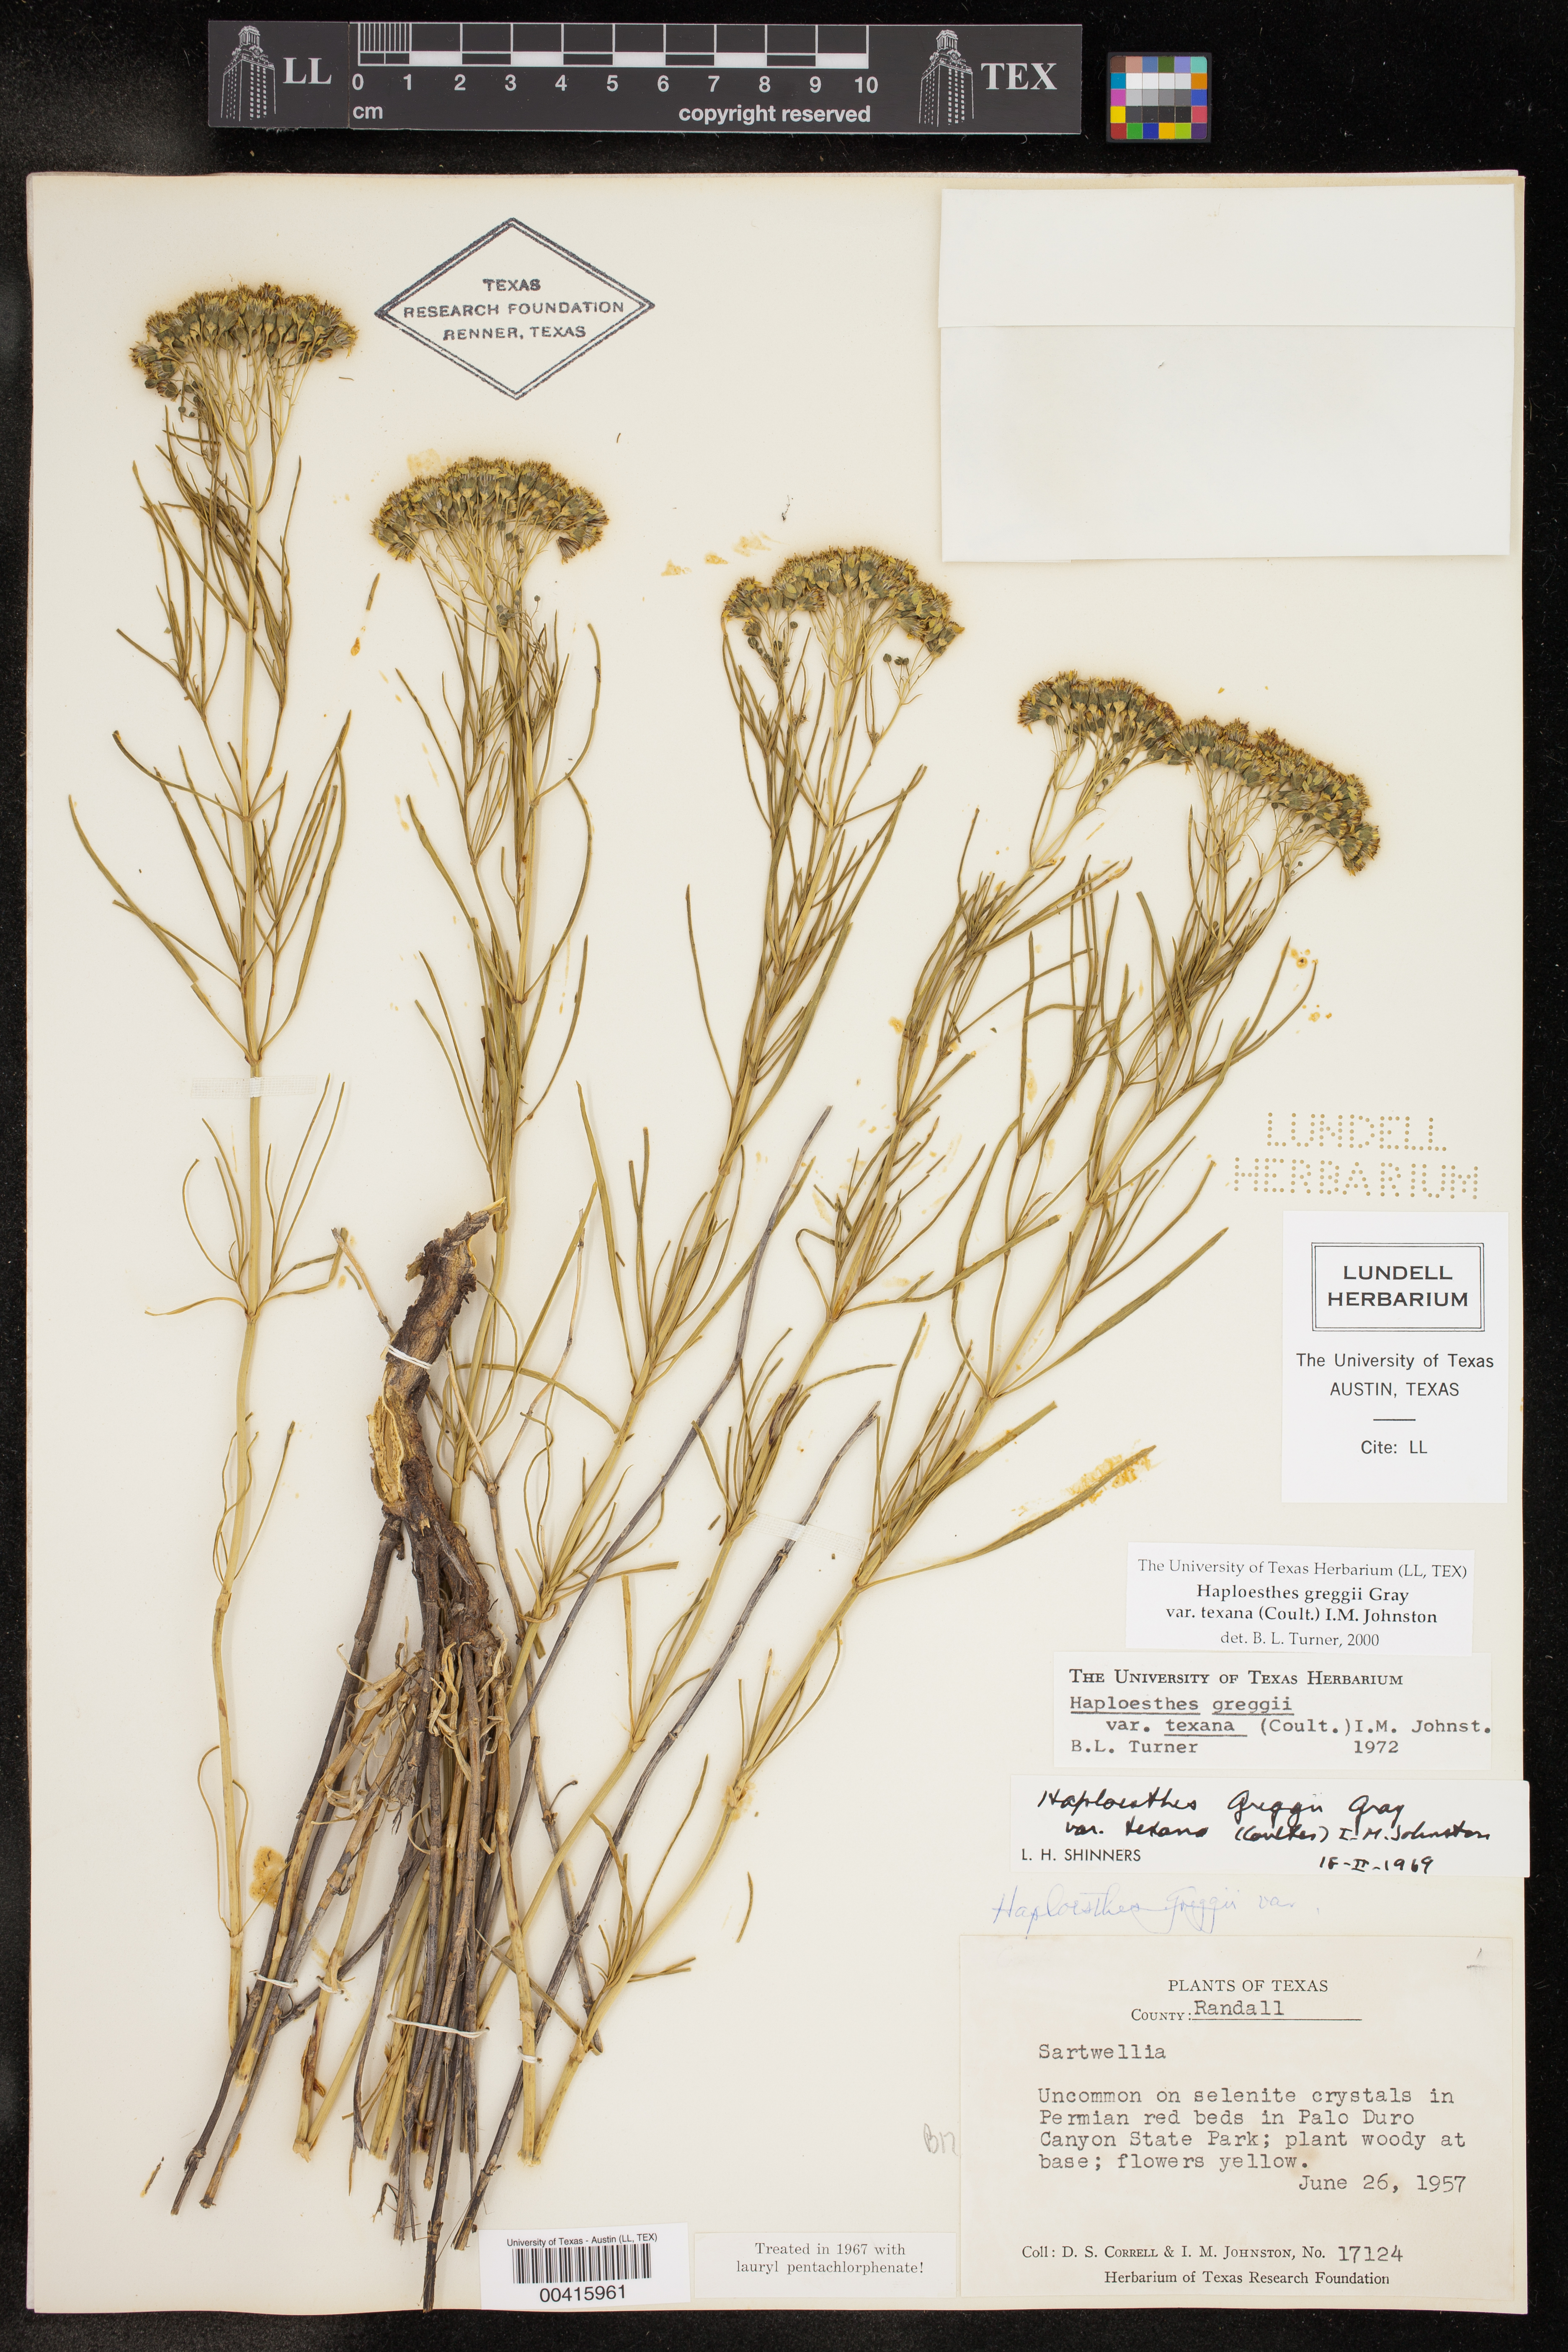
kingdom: Plantae
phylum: Tracheophyta
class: Magnoliopsida
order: Asterales
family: Asteraceae
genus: Haploesthes
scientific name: Haploesthes greggii
